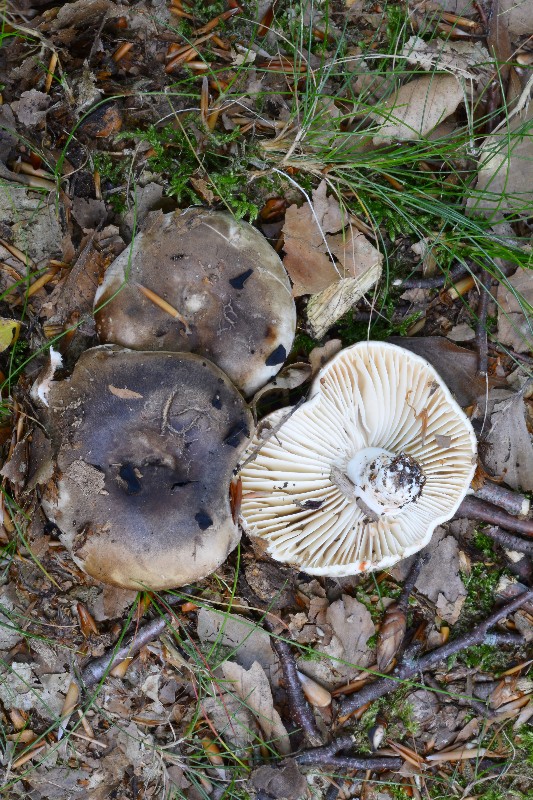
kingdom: Fungi
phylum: Basidiomycota
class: Agaricomycetes
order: Russulales
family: Russulaceae
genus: Russula
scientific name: Russula adusta
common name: sværtende skørhat
